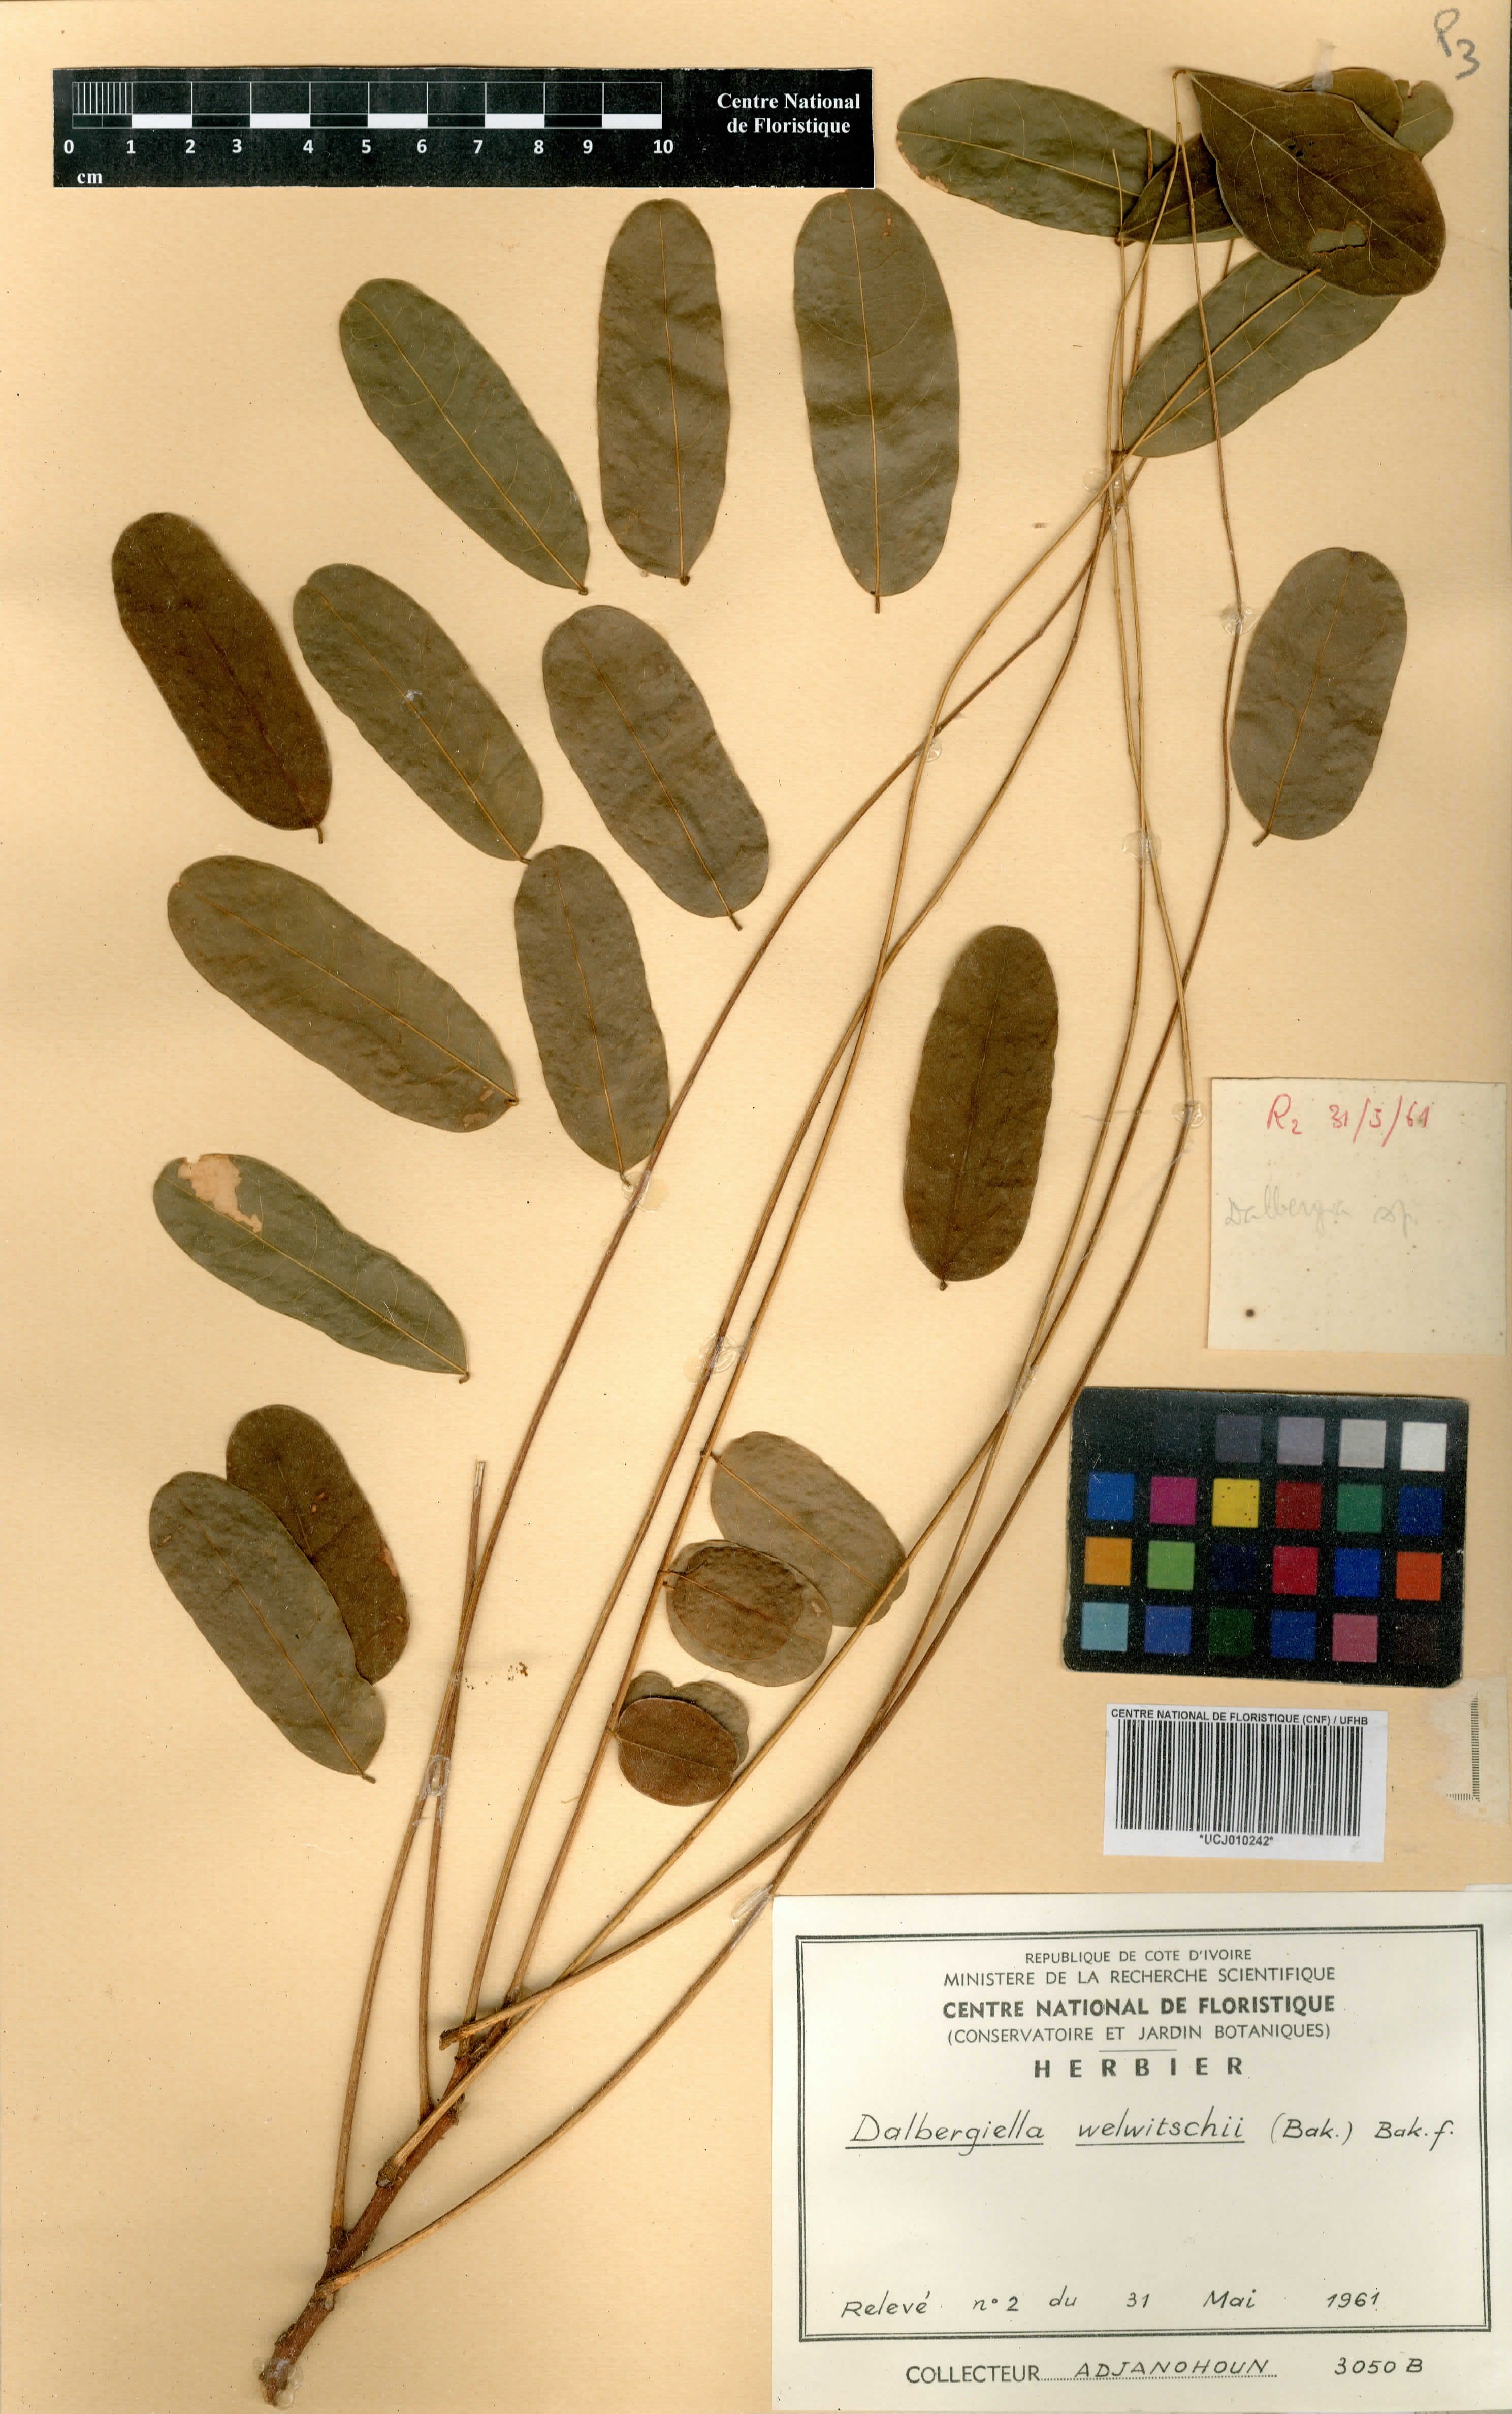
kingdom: Plantae
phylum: Tracheophyta
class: Magnoliopsida
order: Fabales
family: Fabaceae
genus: Dalbergiella
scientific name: Dalbergiella welwitschii
